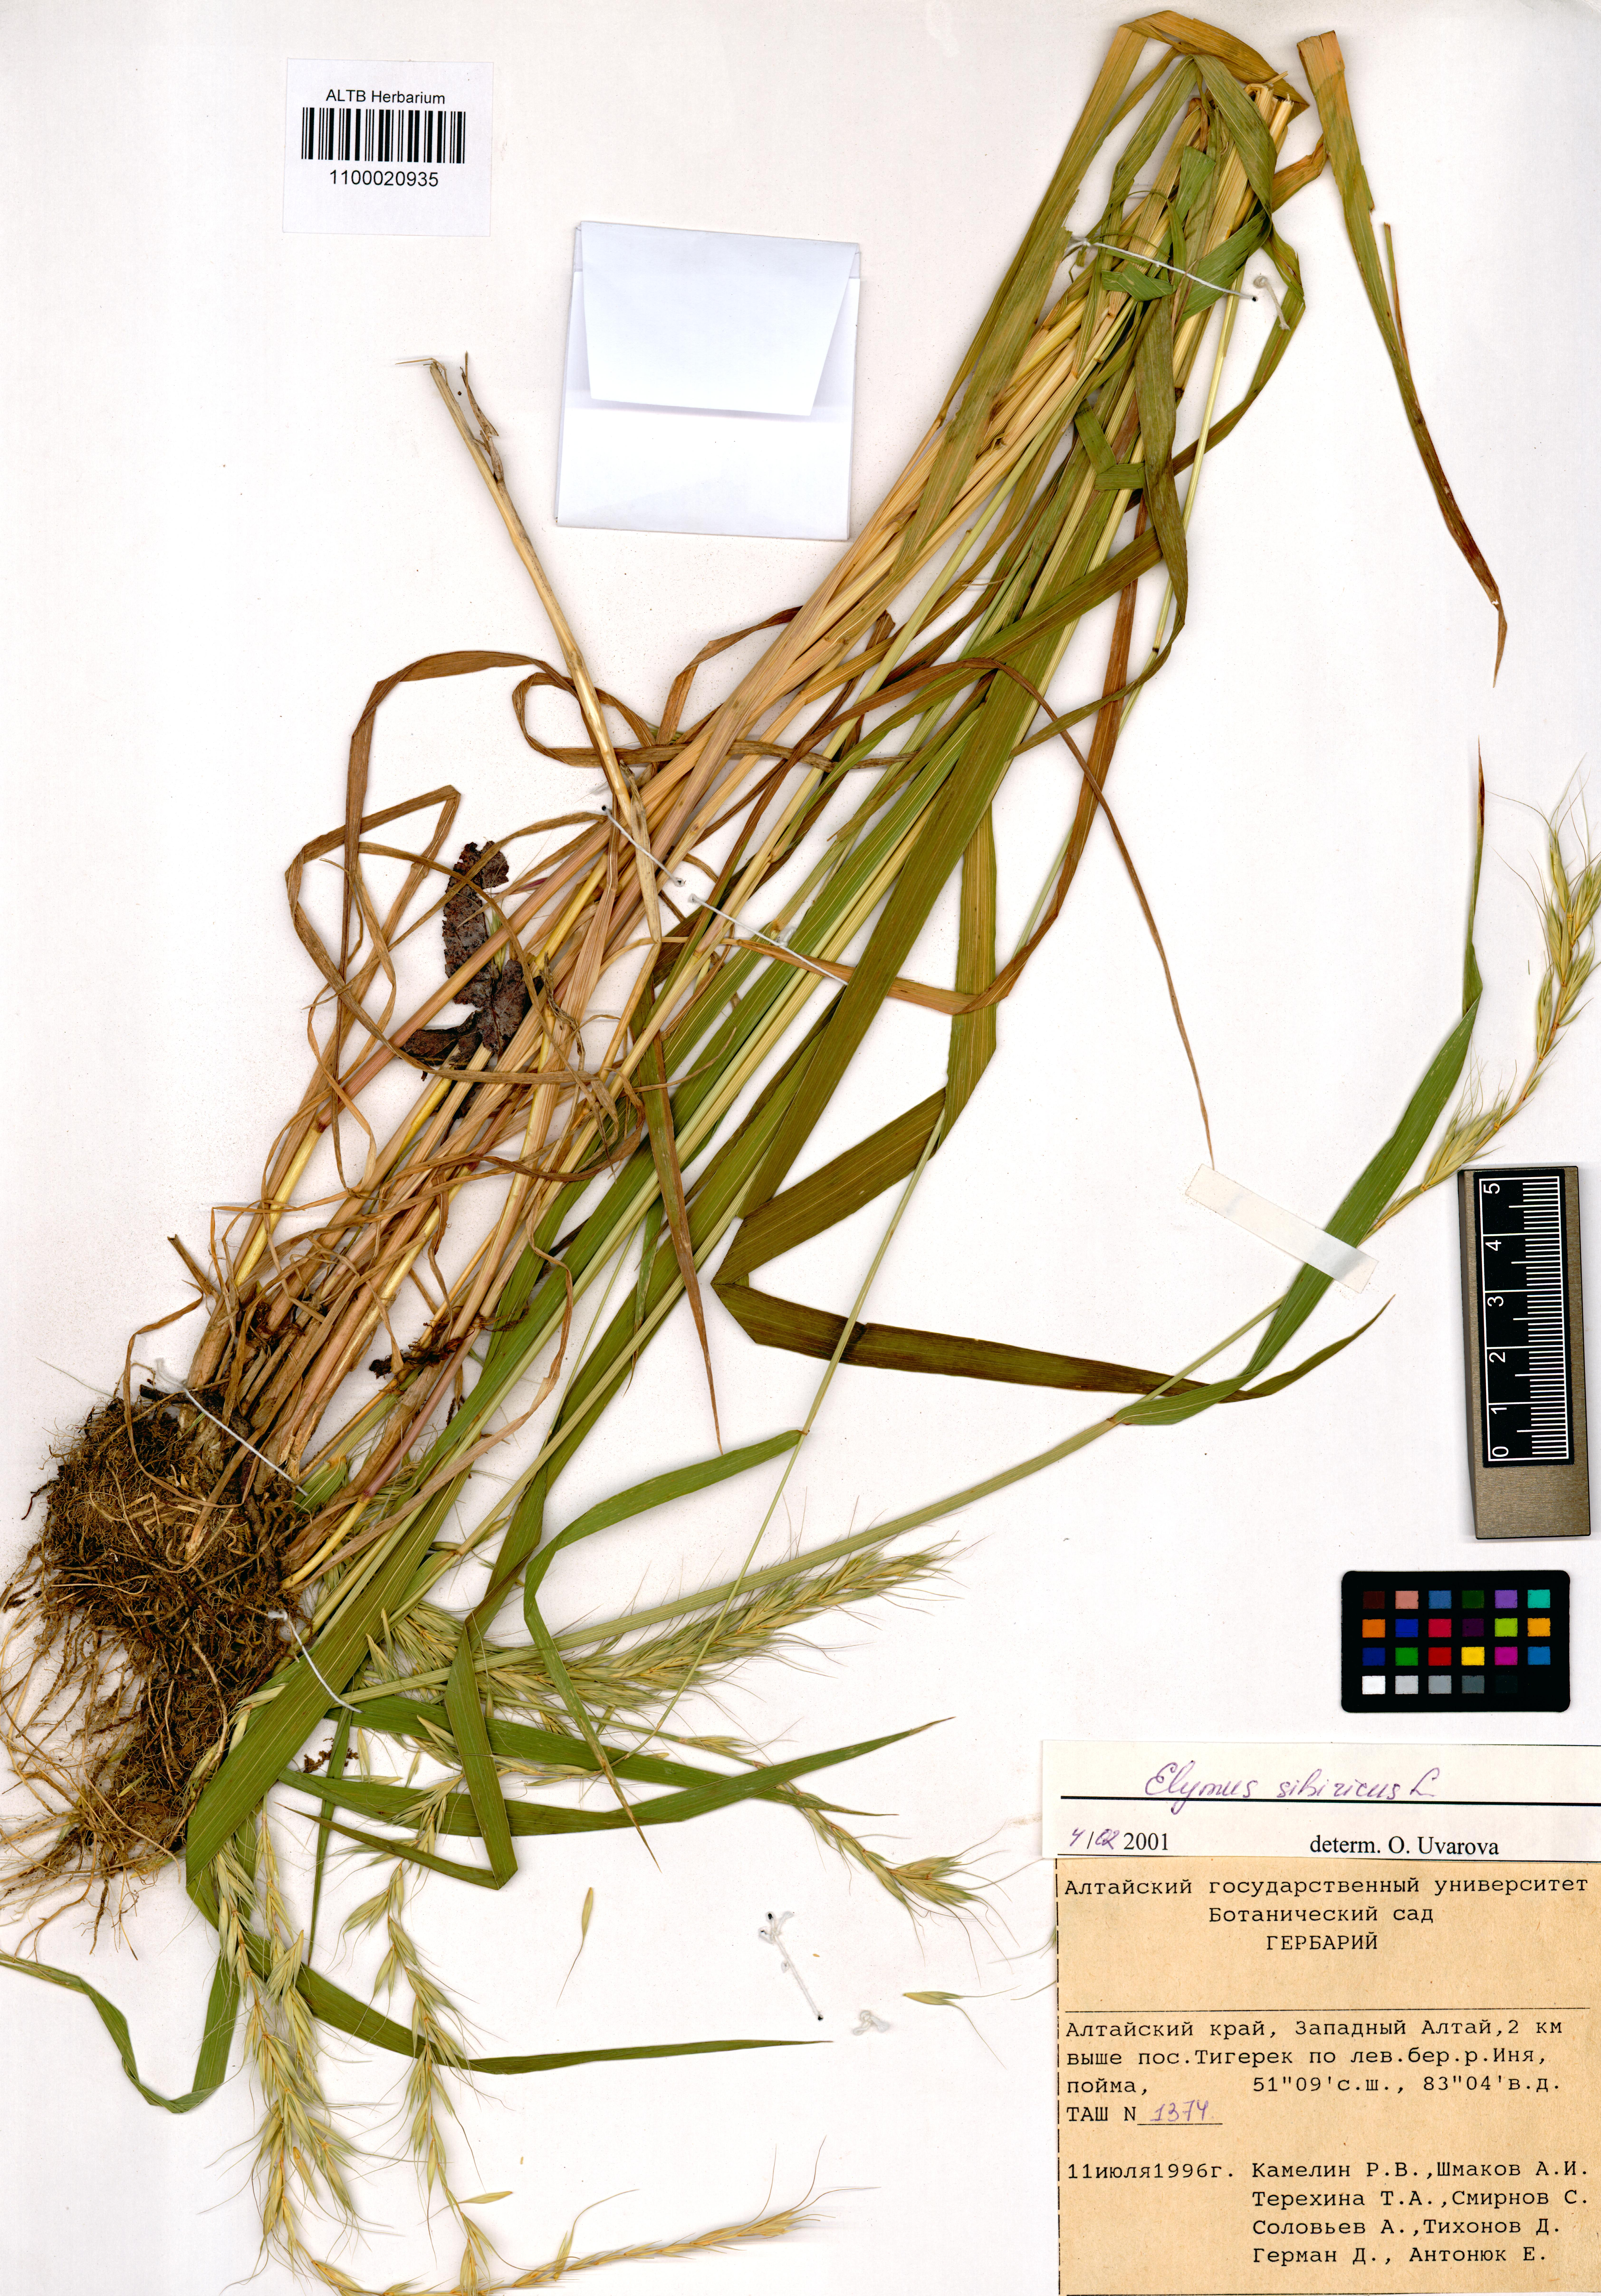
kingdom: Plantae
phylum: Tracheophyta
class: Liliopsida
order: Poales
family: Poaceae
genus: Elymus
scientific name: Elymus sibiricus
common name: Siberian wildrye
